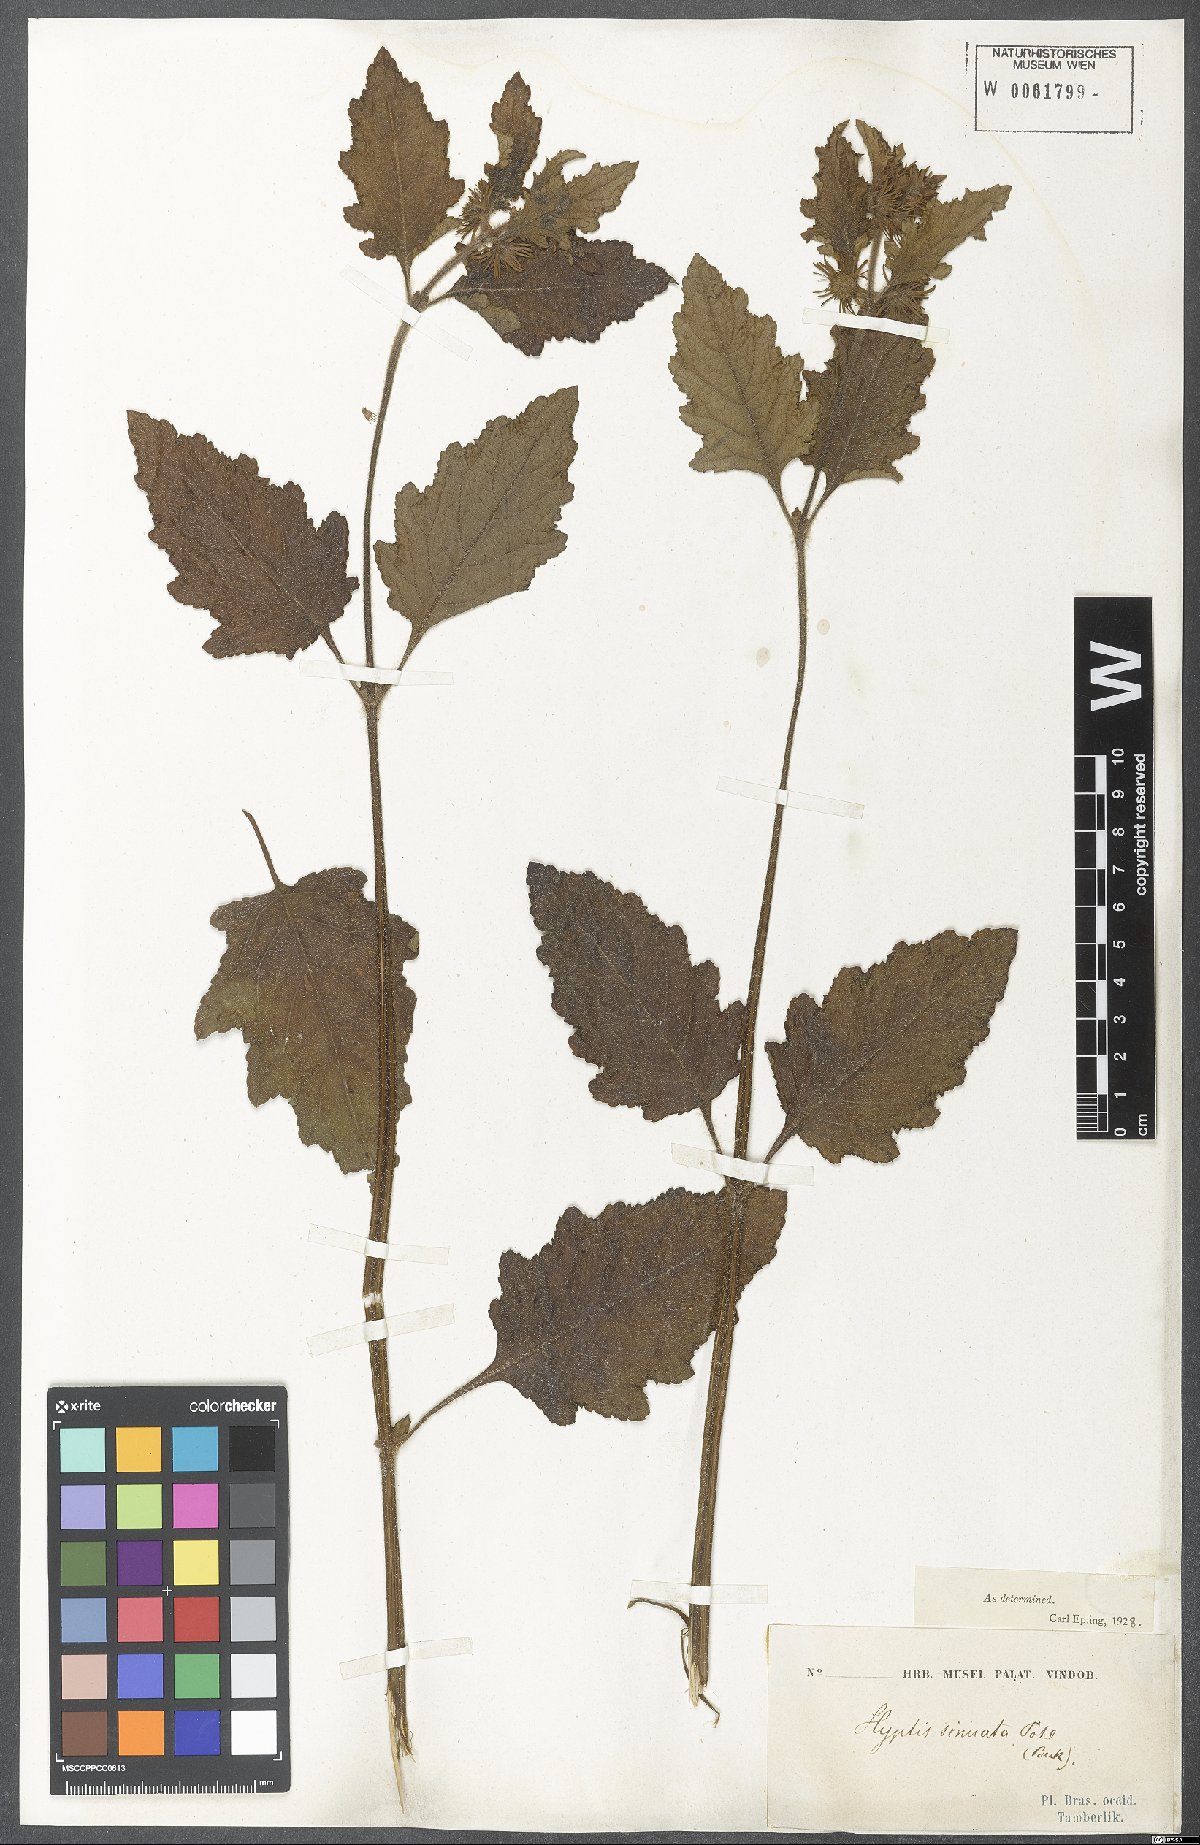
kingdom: Plantae
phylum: Tracheophyta
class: Magnoliopsida
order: Lamiales
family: Lamiaceae
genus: Hyptis
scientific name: Hyptis sinuata
